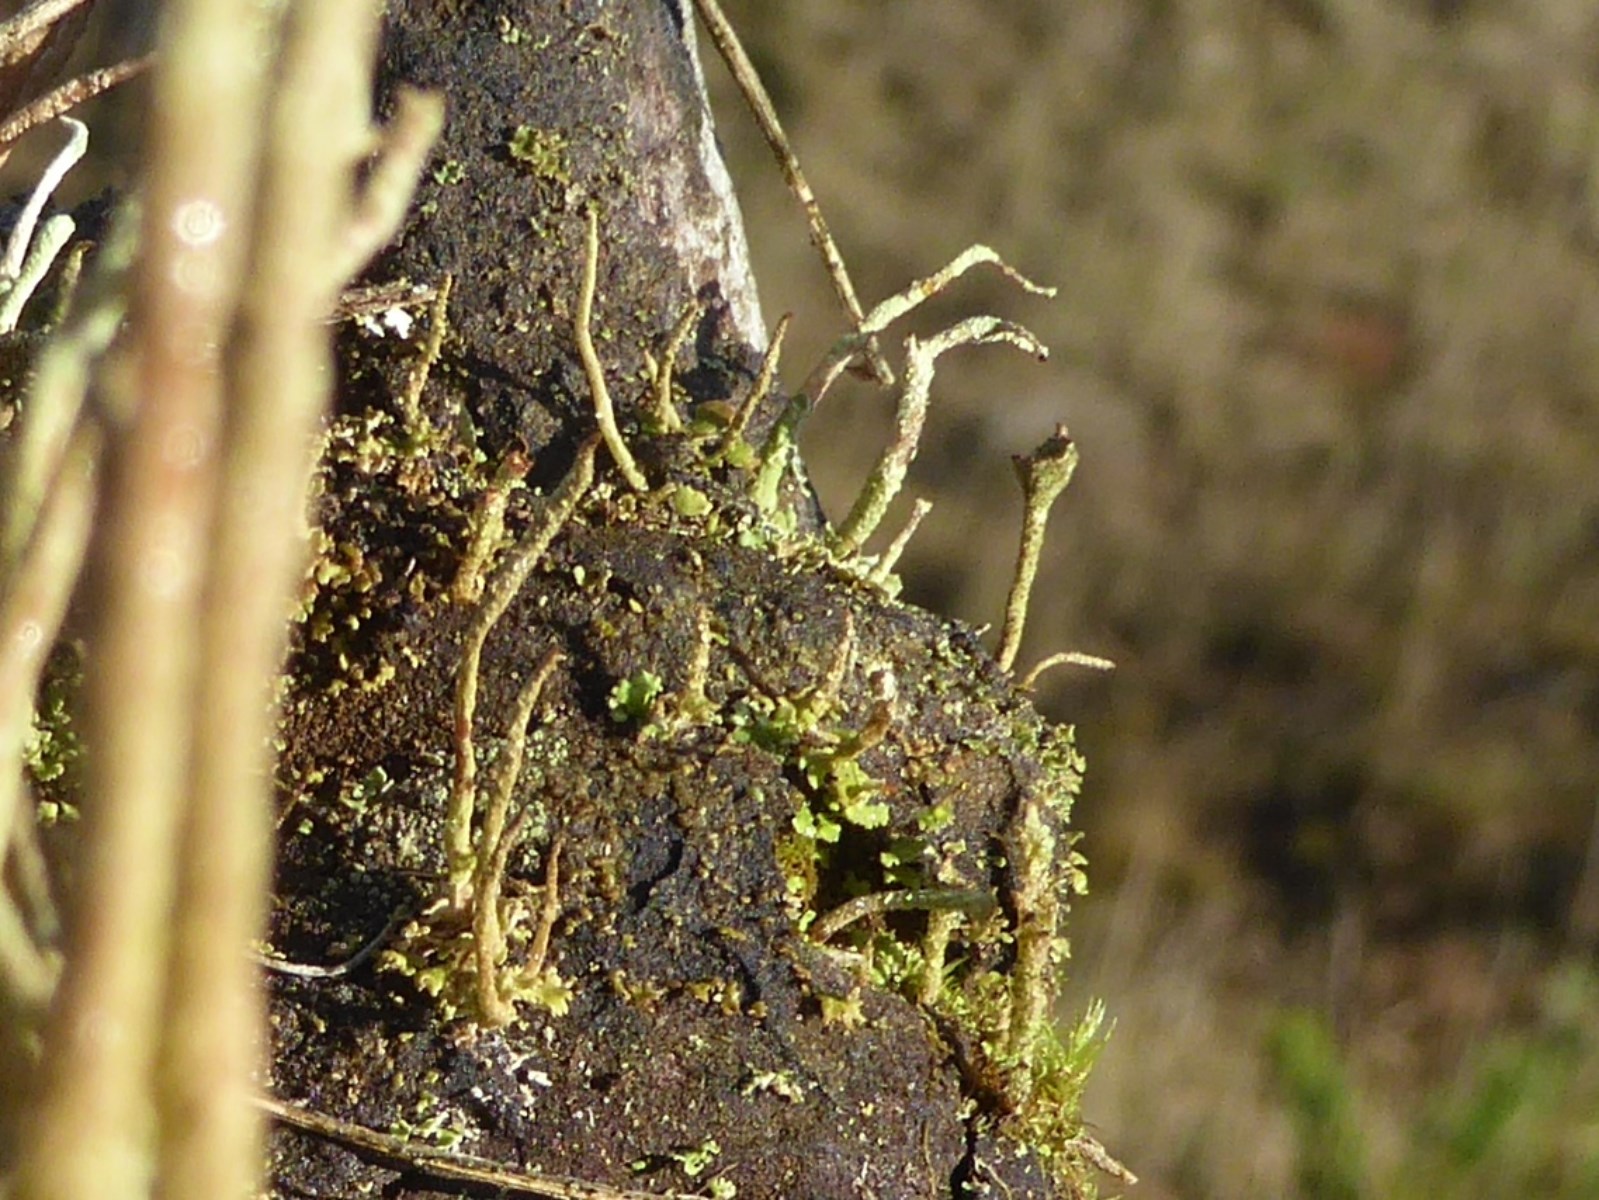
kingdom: Fungi
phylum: Ascomycota
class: Lecanoromycetes
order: Lecanorales
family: Cladoniaceae
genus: Cladonia
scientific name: Cladonia coniocraea
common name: træfods-bægerlav
